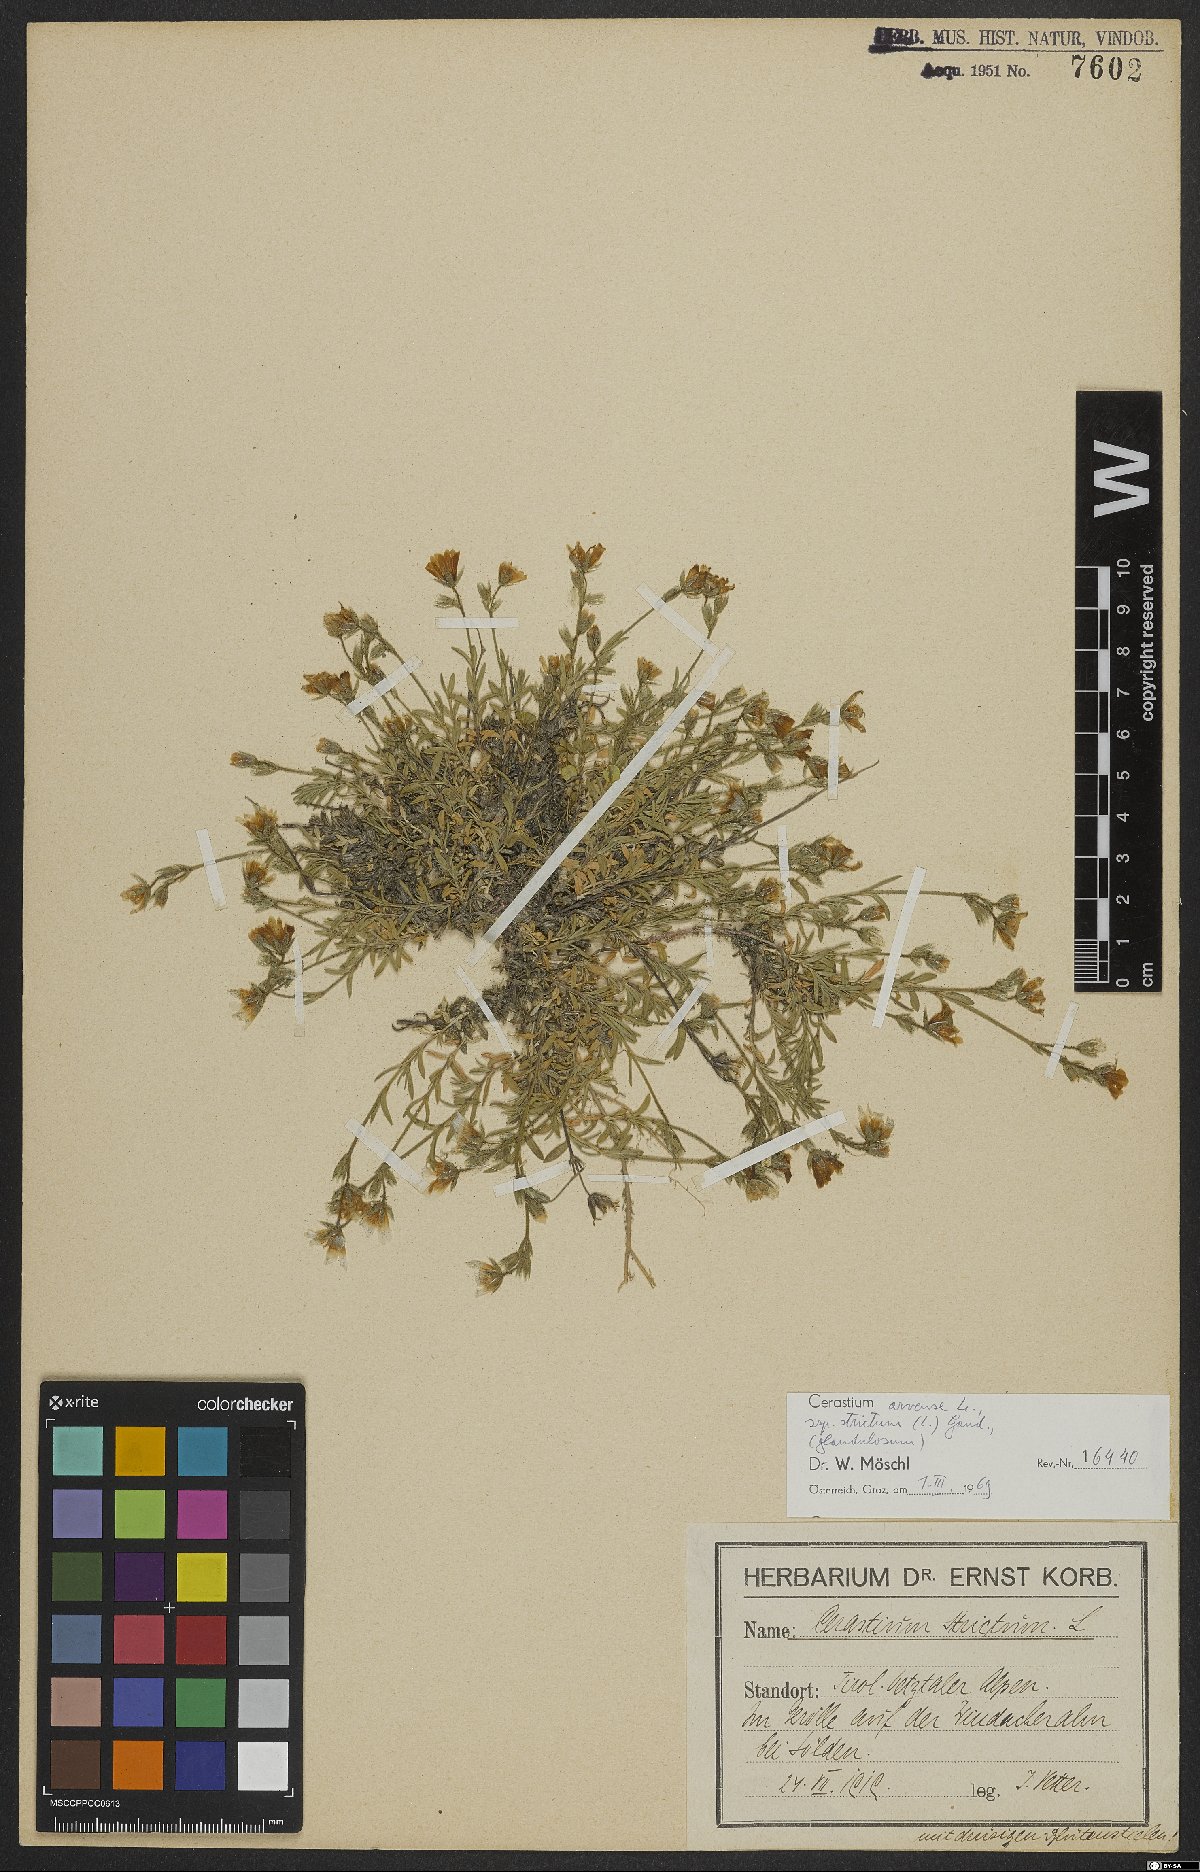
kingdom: Plantae
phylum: Tracheophyta
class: Magnoliopsida
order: Caryophyllales
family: Caryophyllaceae
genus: Cerastium
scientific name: Cerastium elongatum
